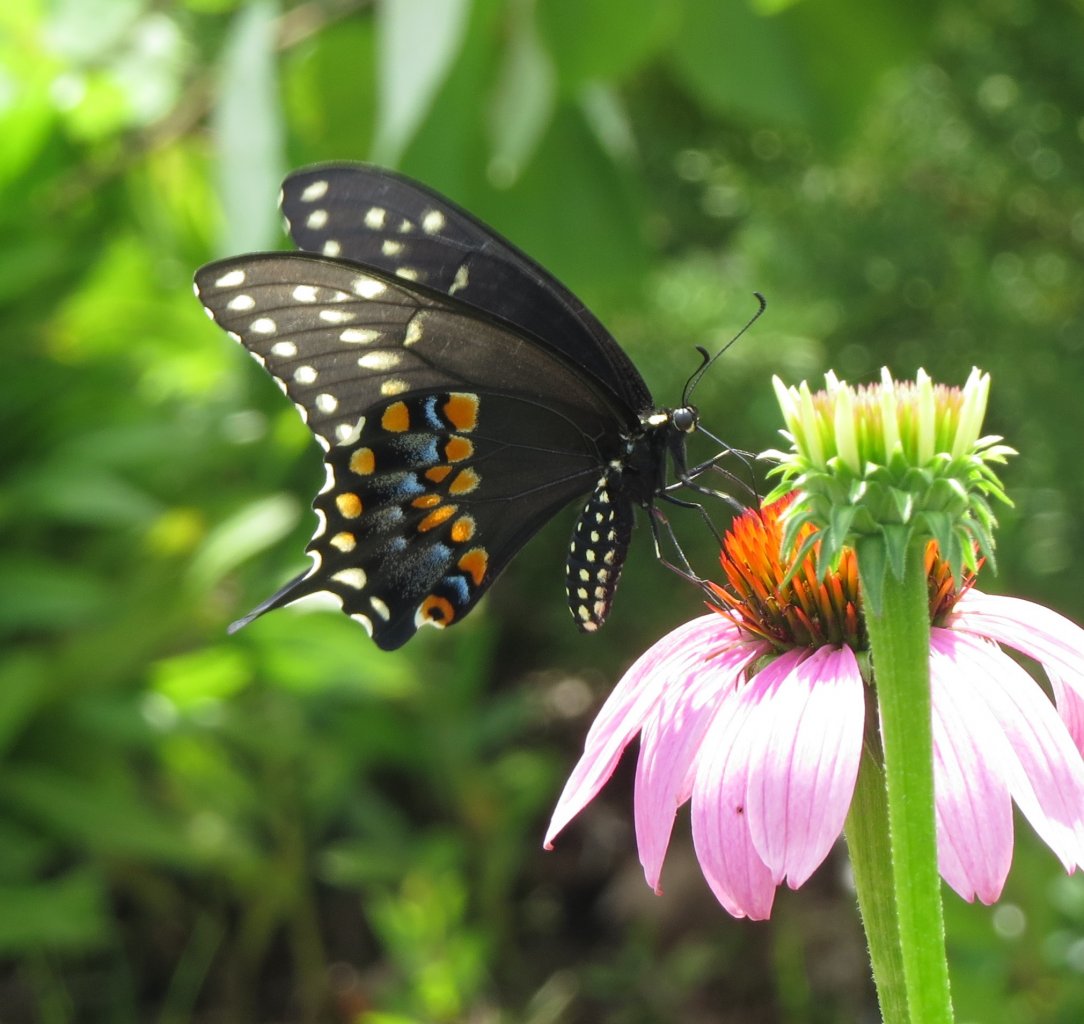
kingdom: Animalia
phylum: Arthropoda
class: Insecta
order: Lepidoptera
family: Papilionidae
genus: Papilio
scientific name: Papilio polyxenes
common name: Black Swallowtail
